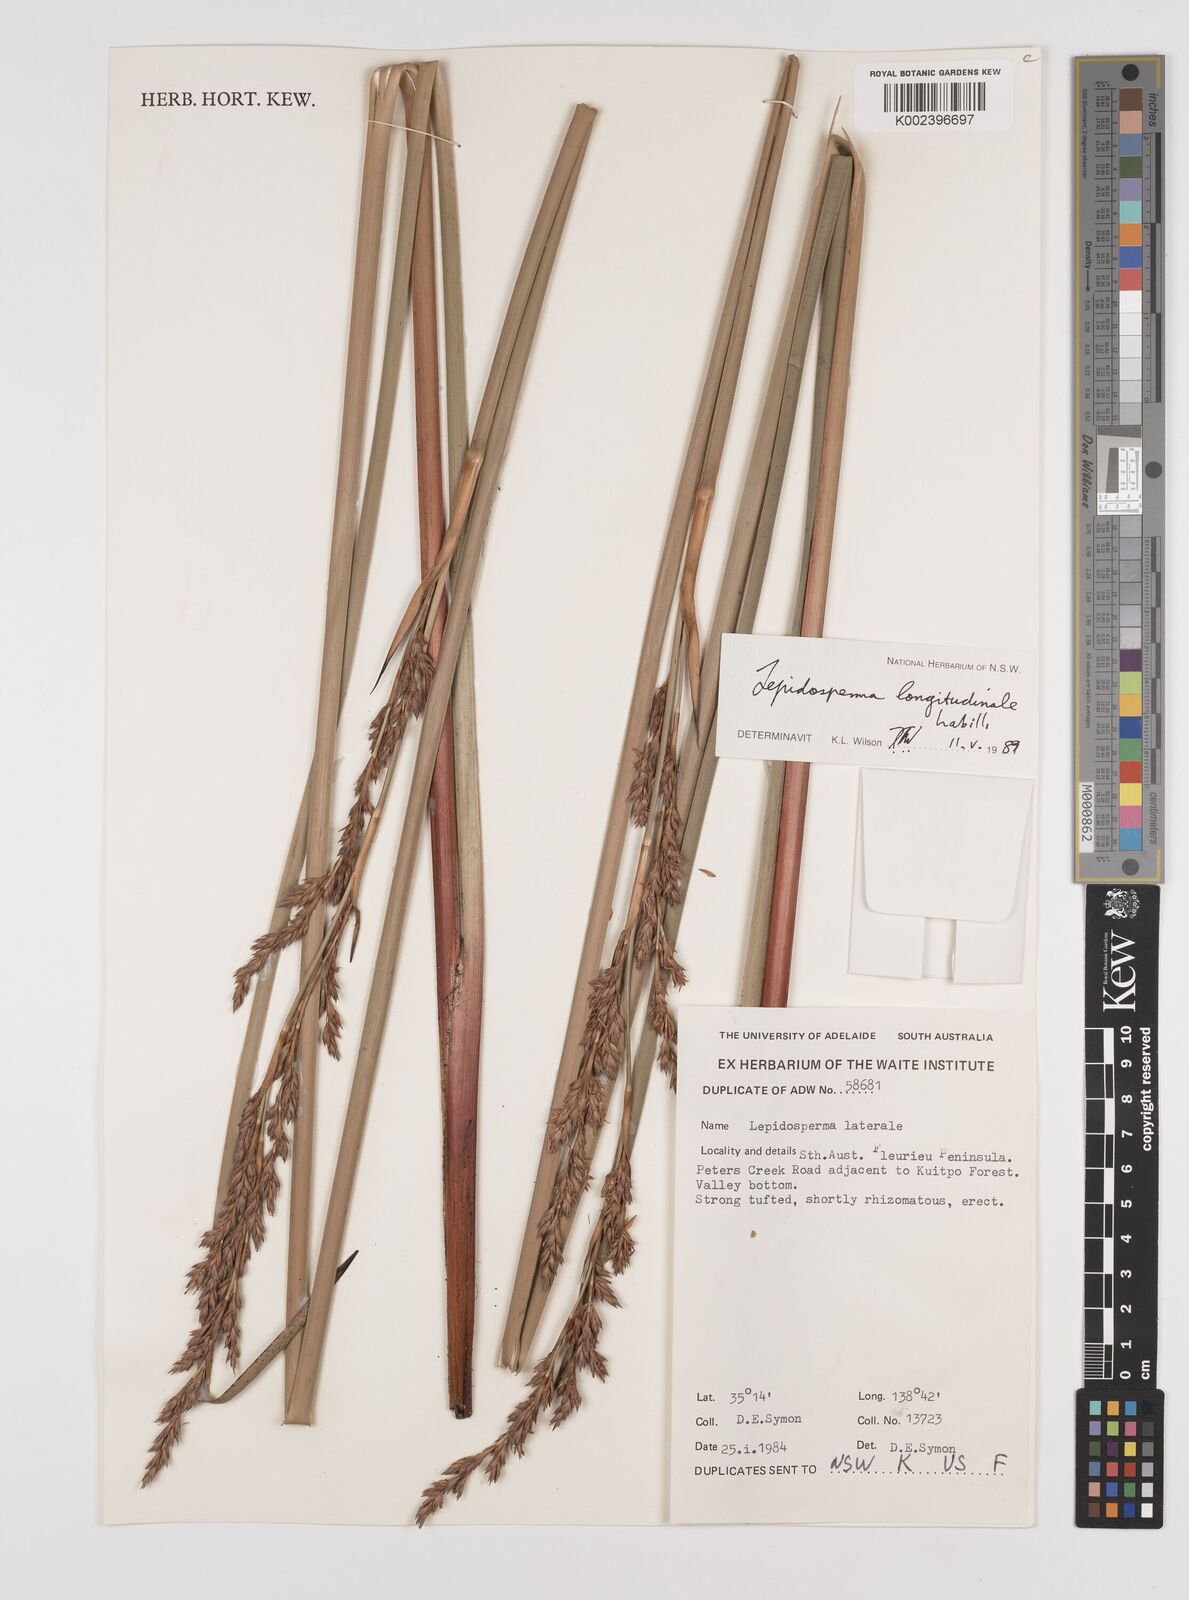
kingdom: Plantae
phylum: Tracheophyta
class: Liliopsida
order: Poales
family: Cyperaceae
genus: Lepidosperma
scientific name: Lepidosperma longitudinale
